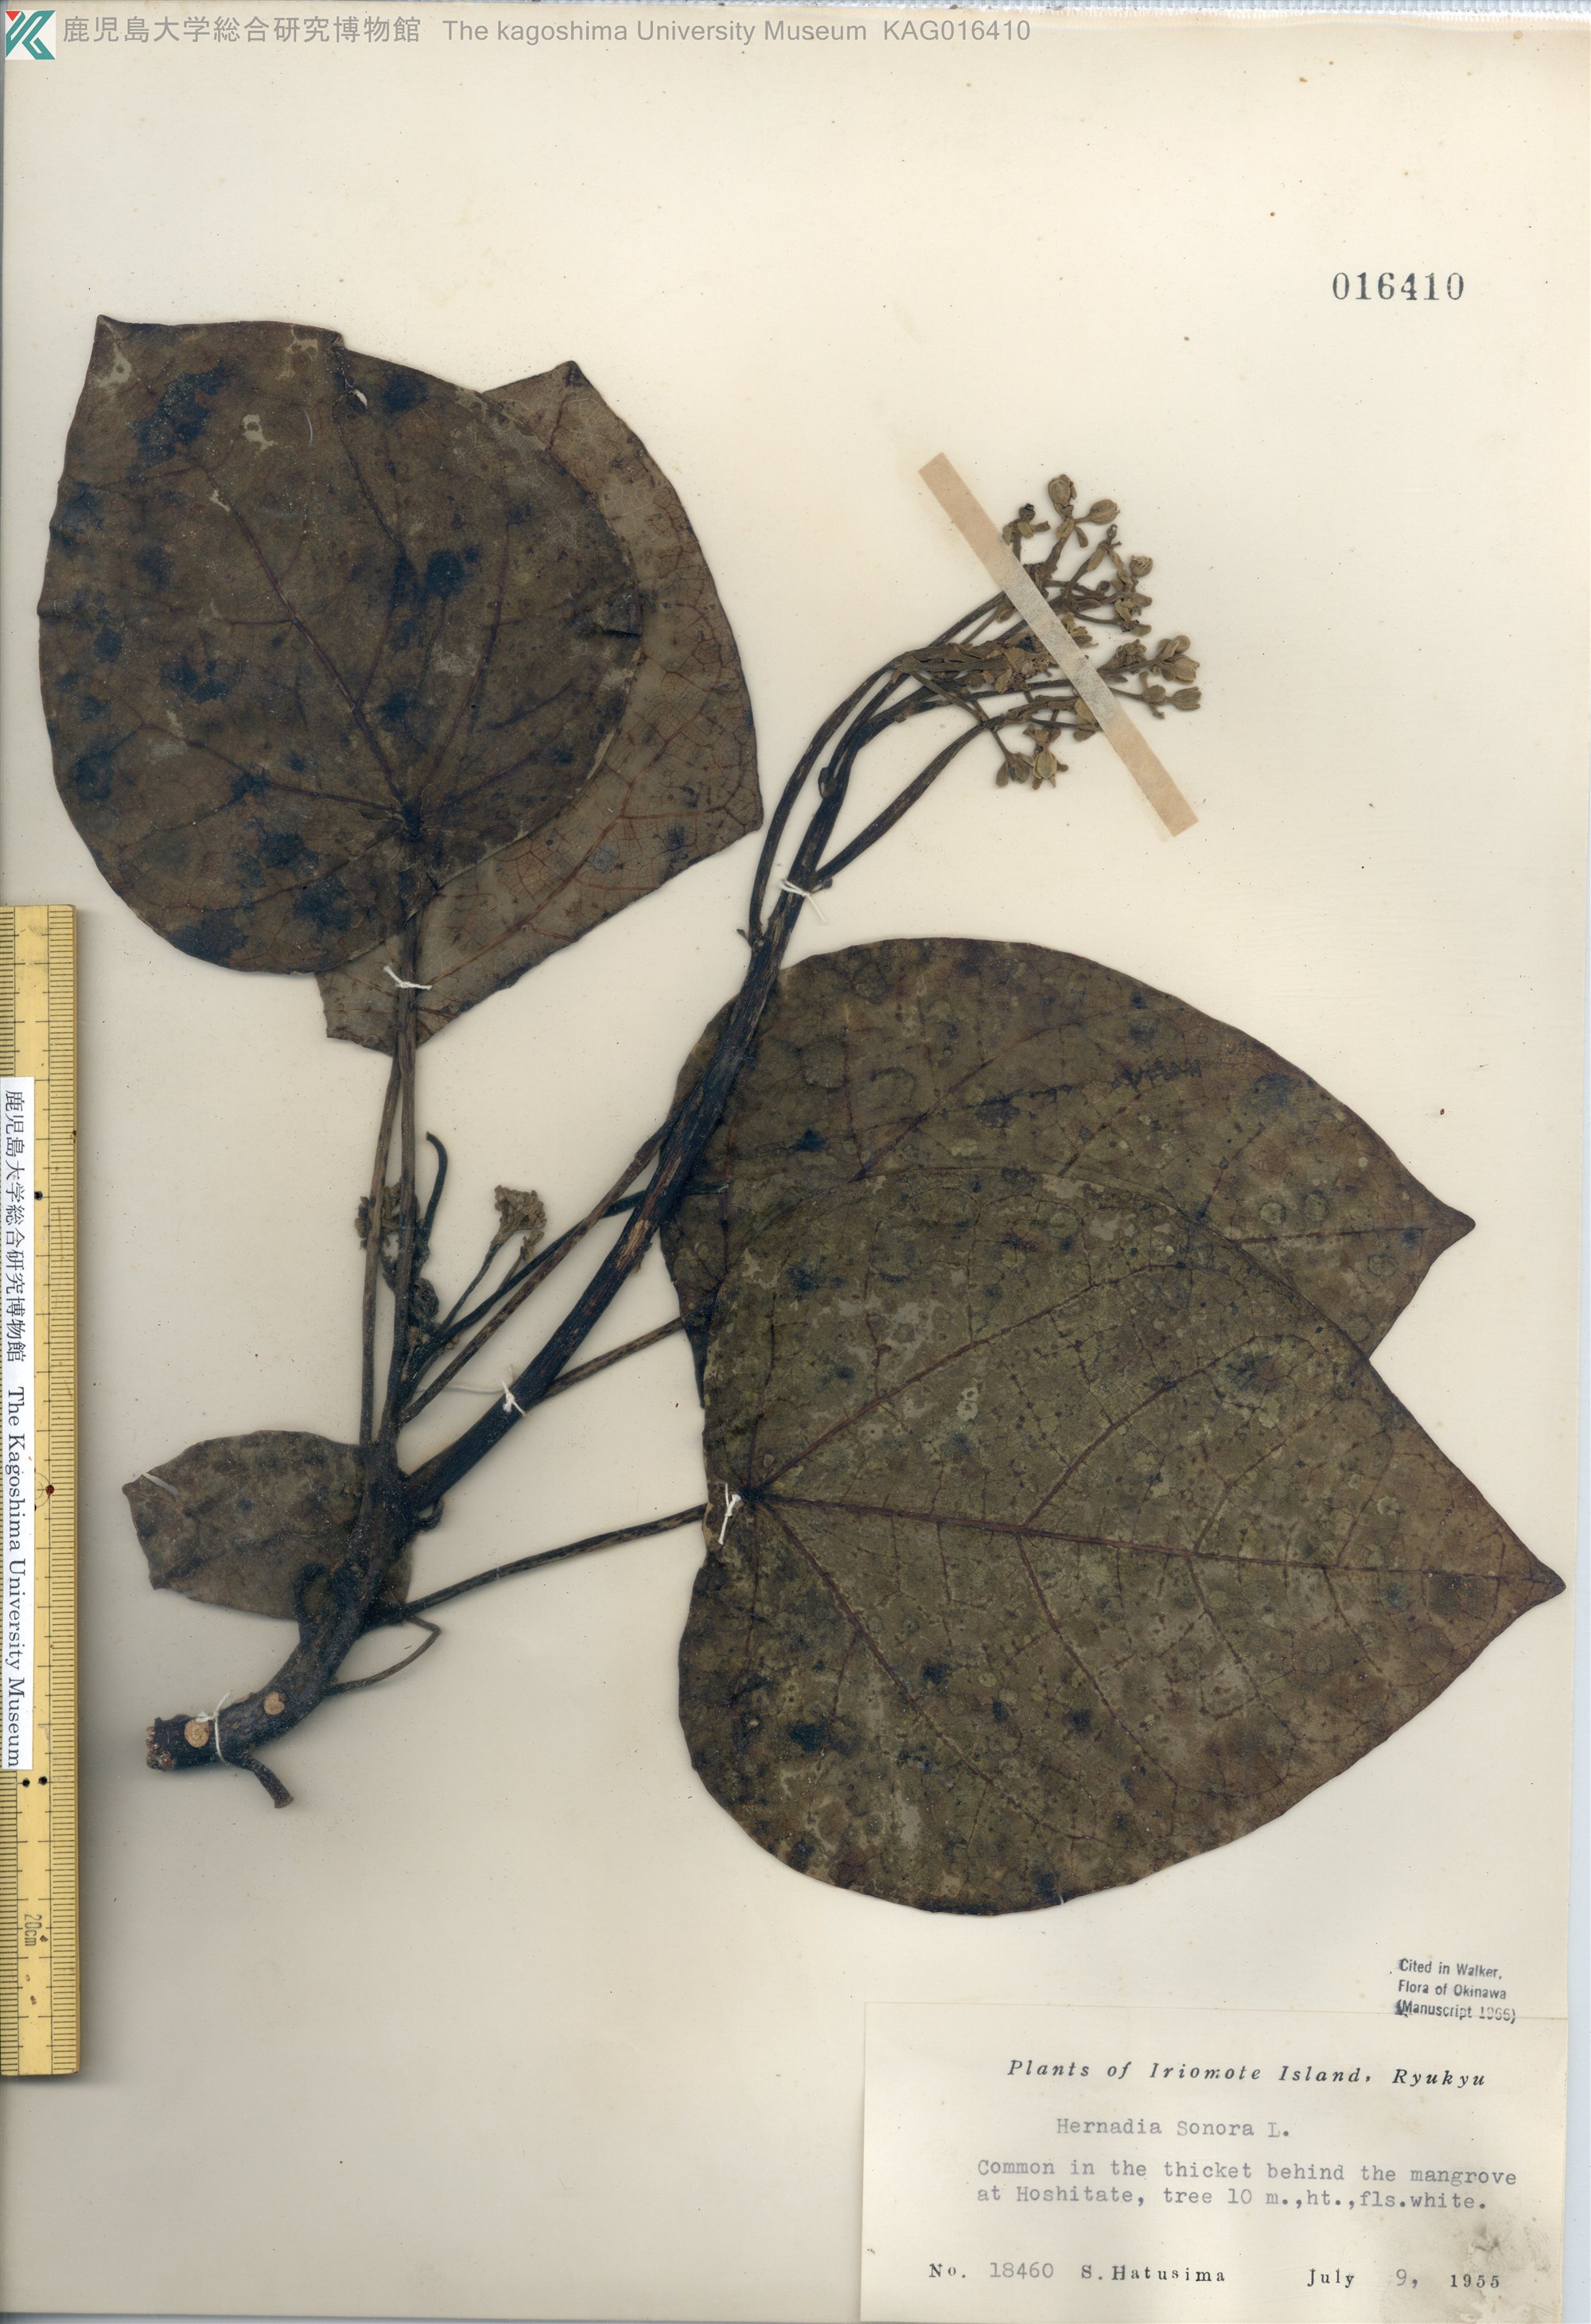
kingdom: Plantae
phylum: Tracheophyta
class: Magnoliopsida
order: Laurales
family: Hernandiaceae
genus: Hernandia
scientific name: Hernandia nymphaeifolia
